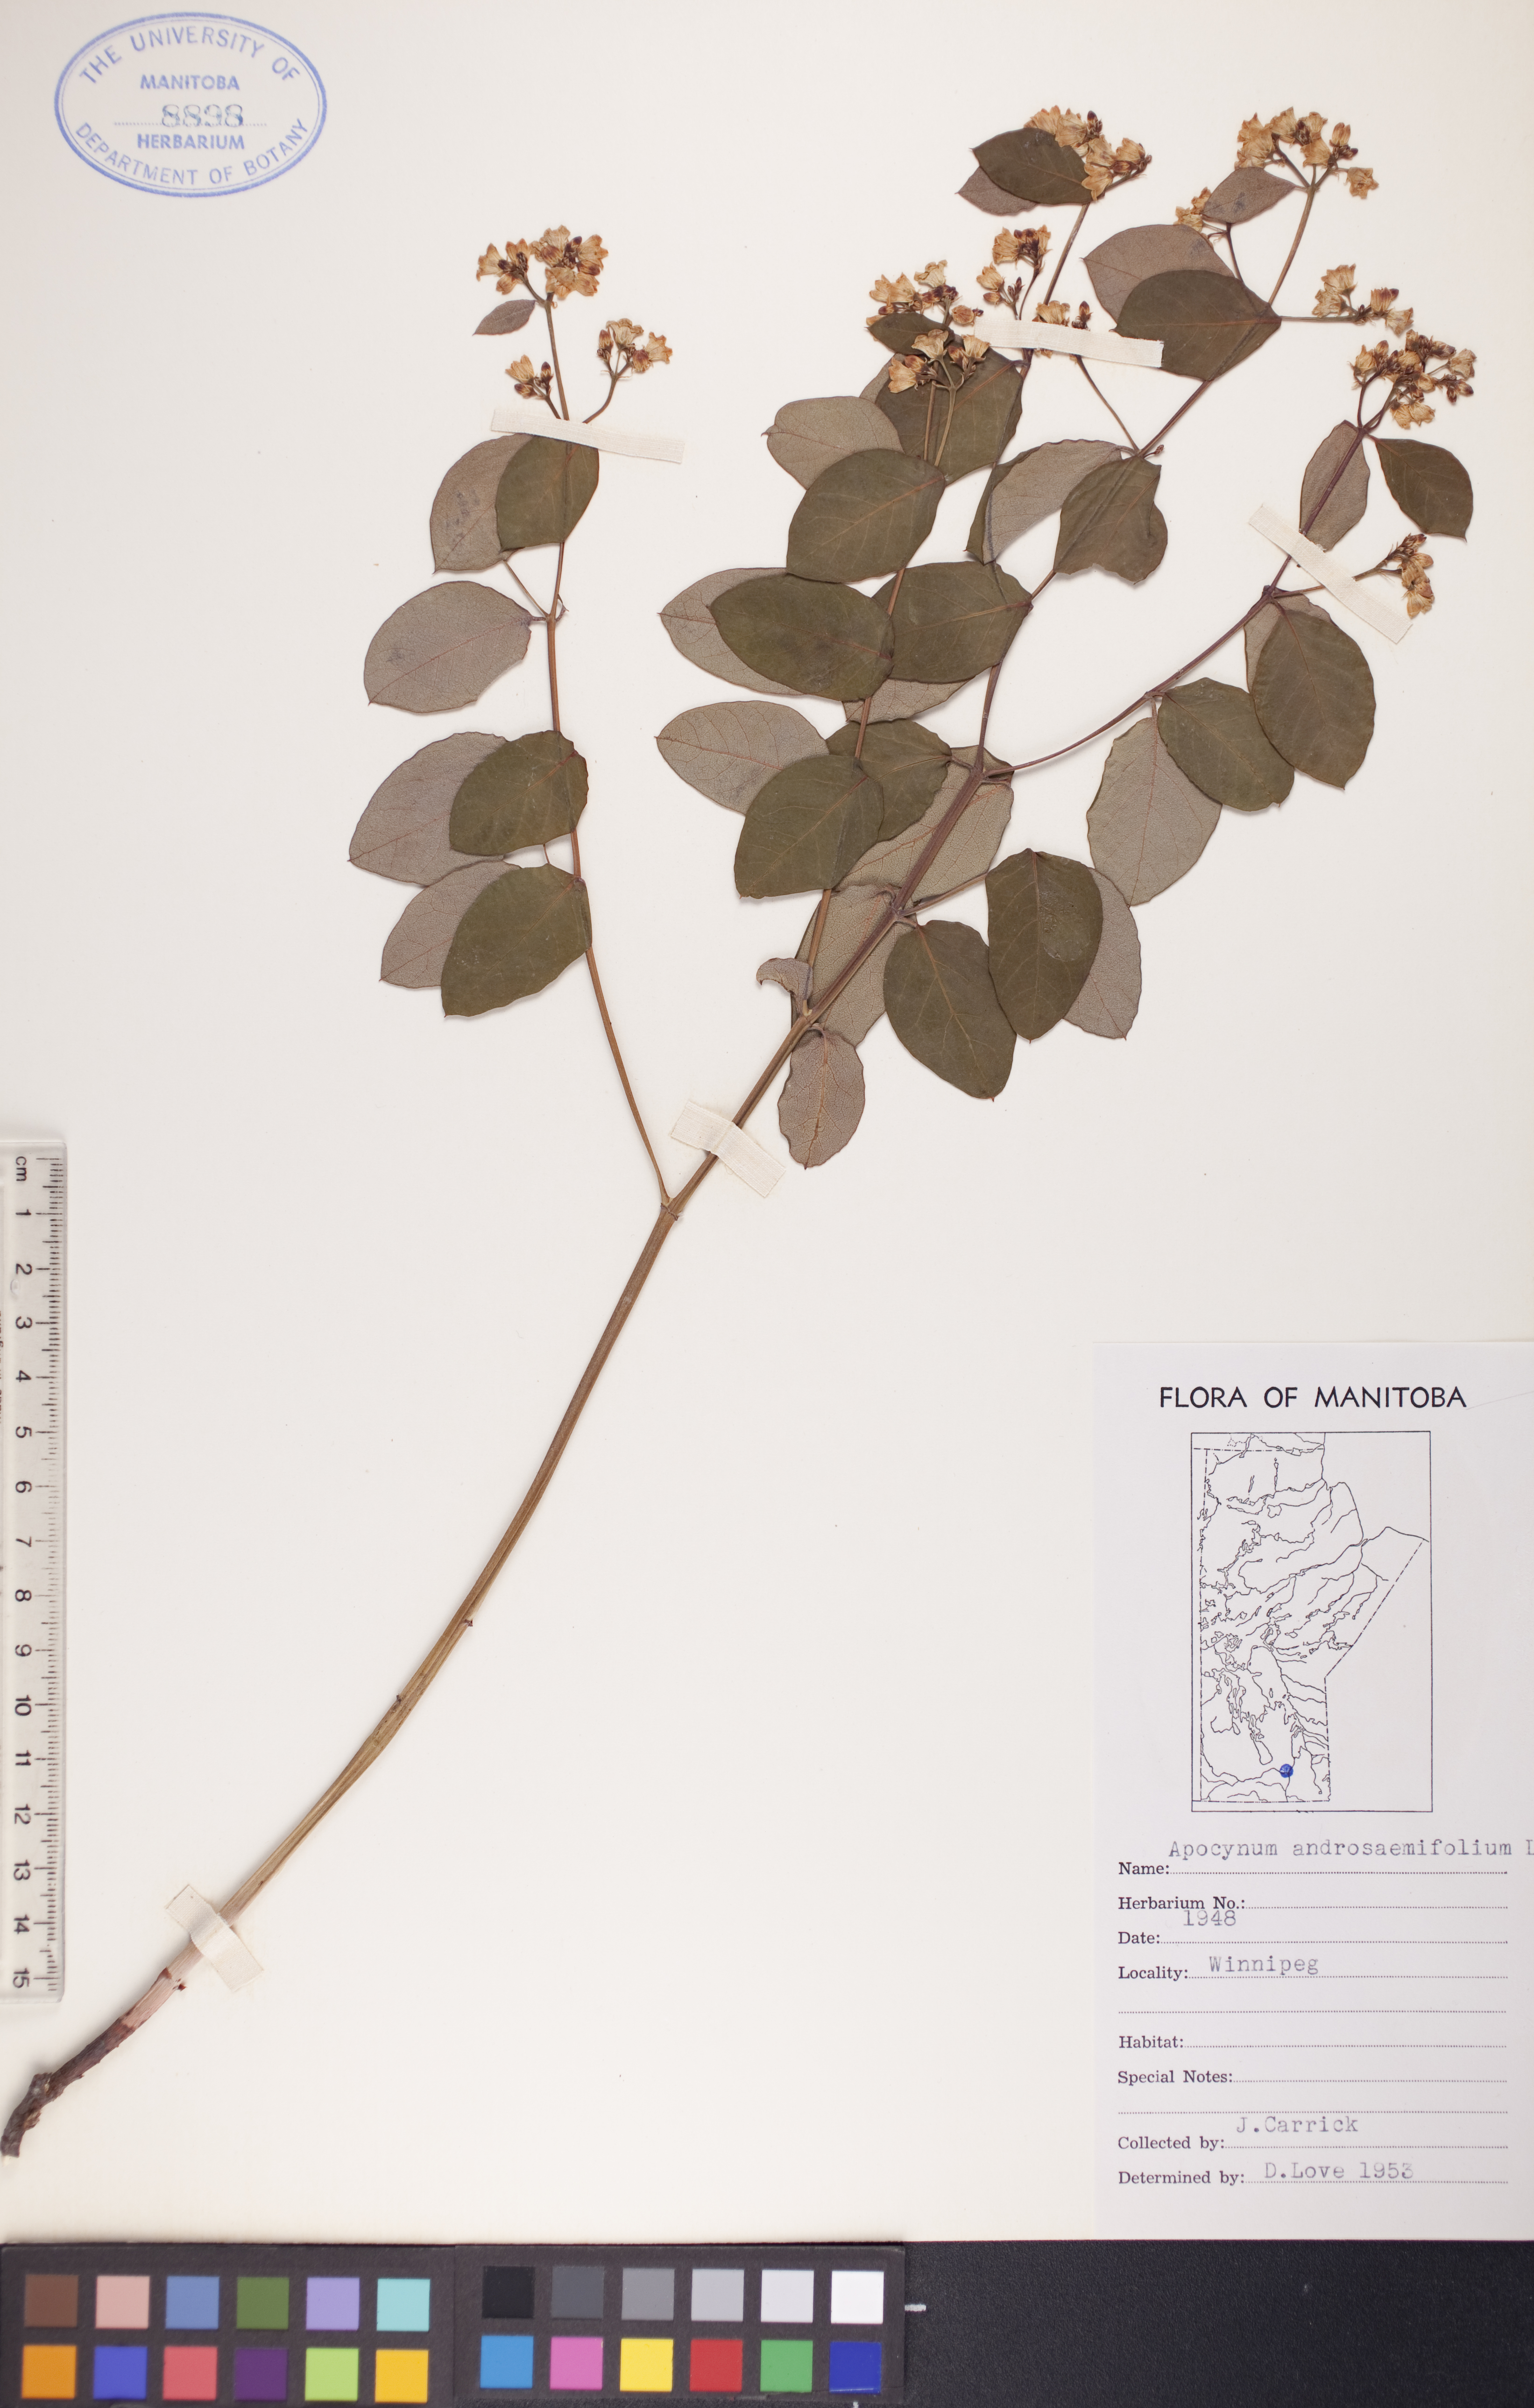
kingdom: Plantae
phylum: Tracheophyta
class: Magnoliopsida
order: Gentianales
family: Apocynaceae
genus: Apocynum
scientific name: Apocynum androsaemifolium
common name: Spreading dogbane
